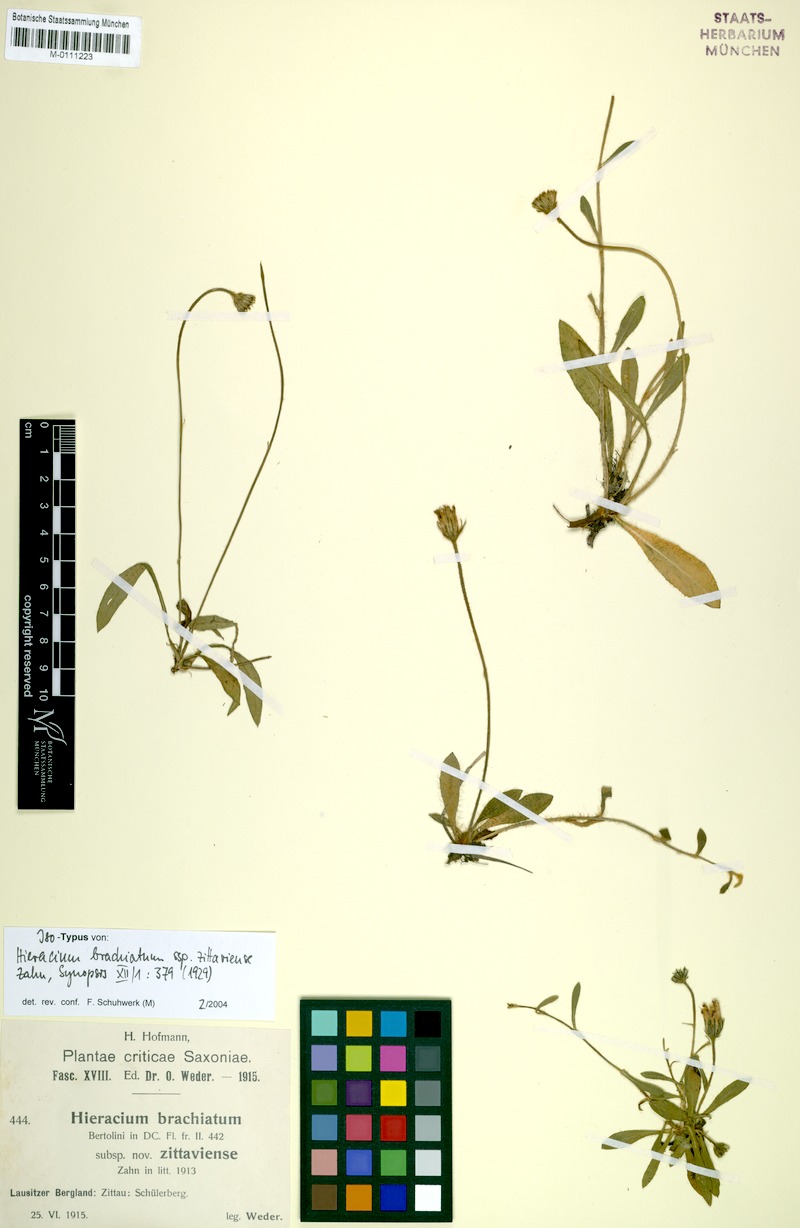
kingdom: Plantae
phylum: Tracheophyta
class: Magnoliopsida
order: Asterales
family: Asteraceae
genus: Pilosella
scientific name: Pilosella acutifolia
